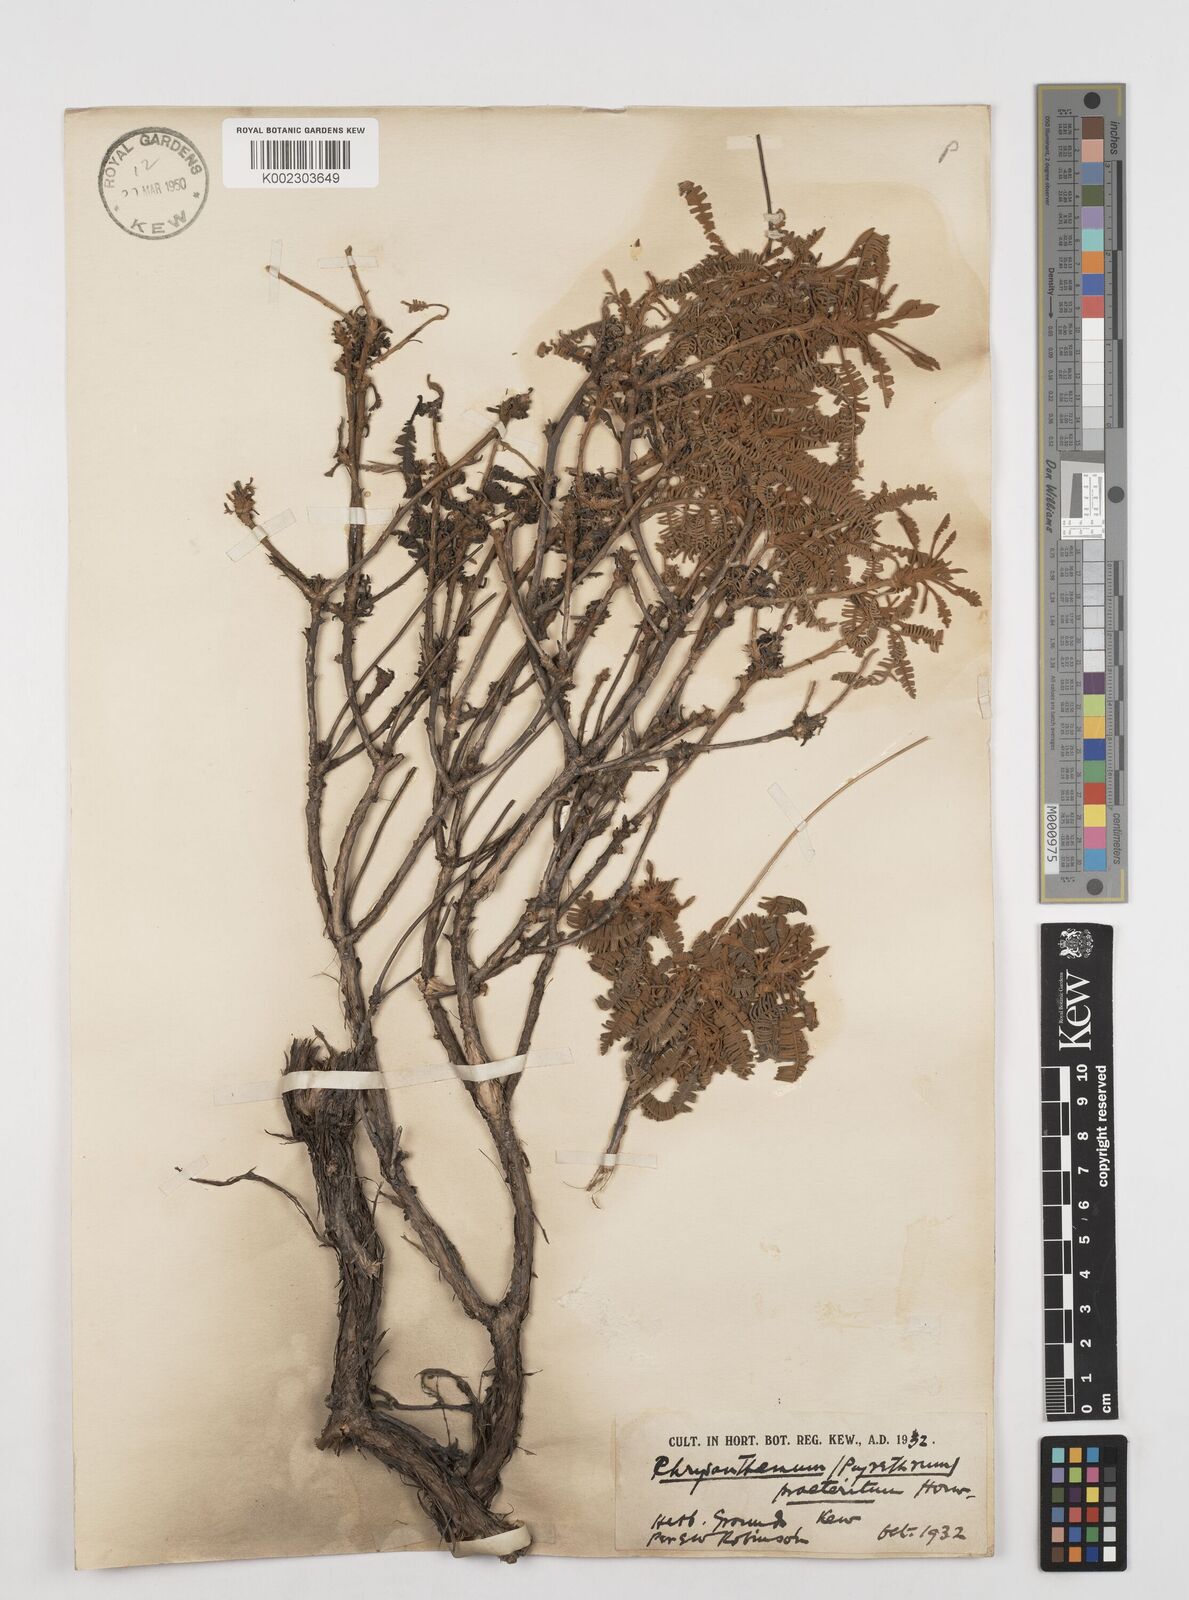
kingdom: Plantae
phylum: Tracheophyta
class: Magnoliopsida
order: Asterales
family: Asteraceae
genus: Tanacetum
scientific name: Tanacetum praeteritum
